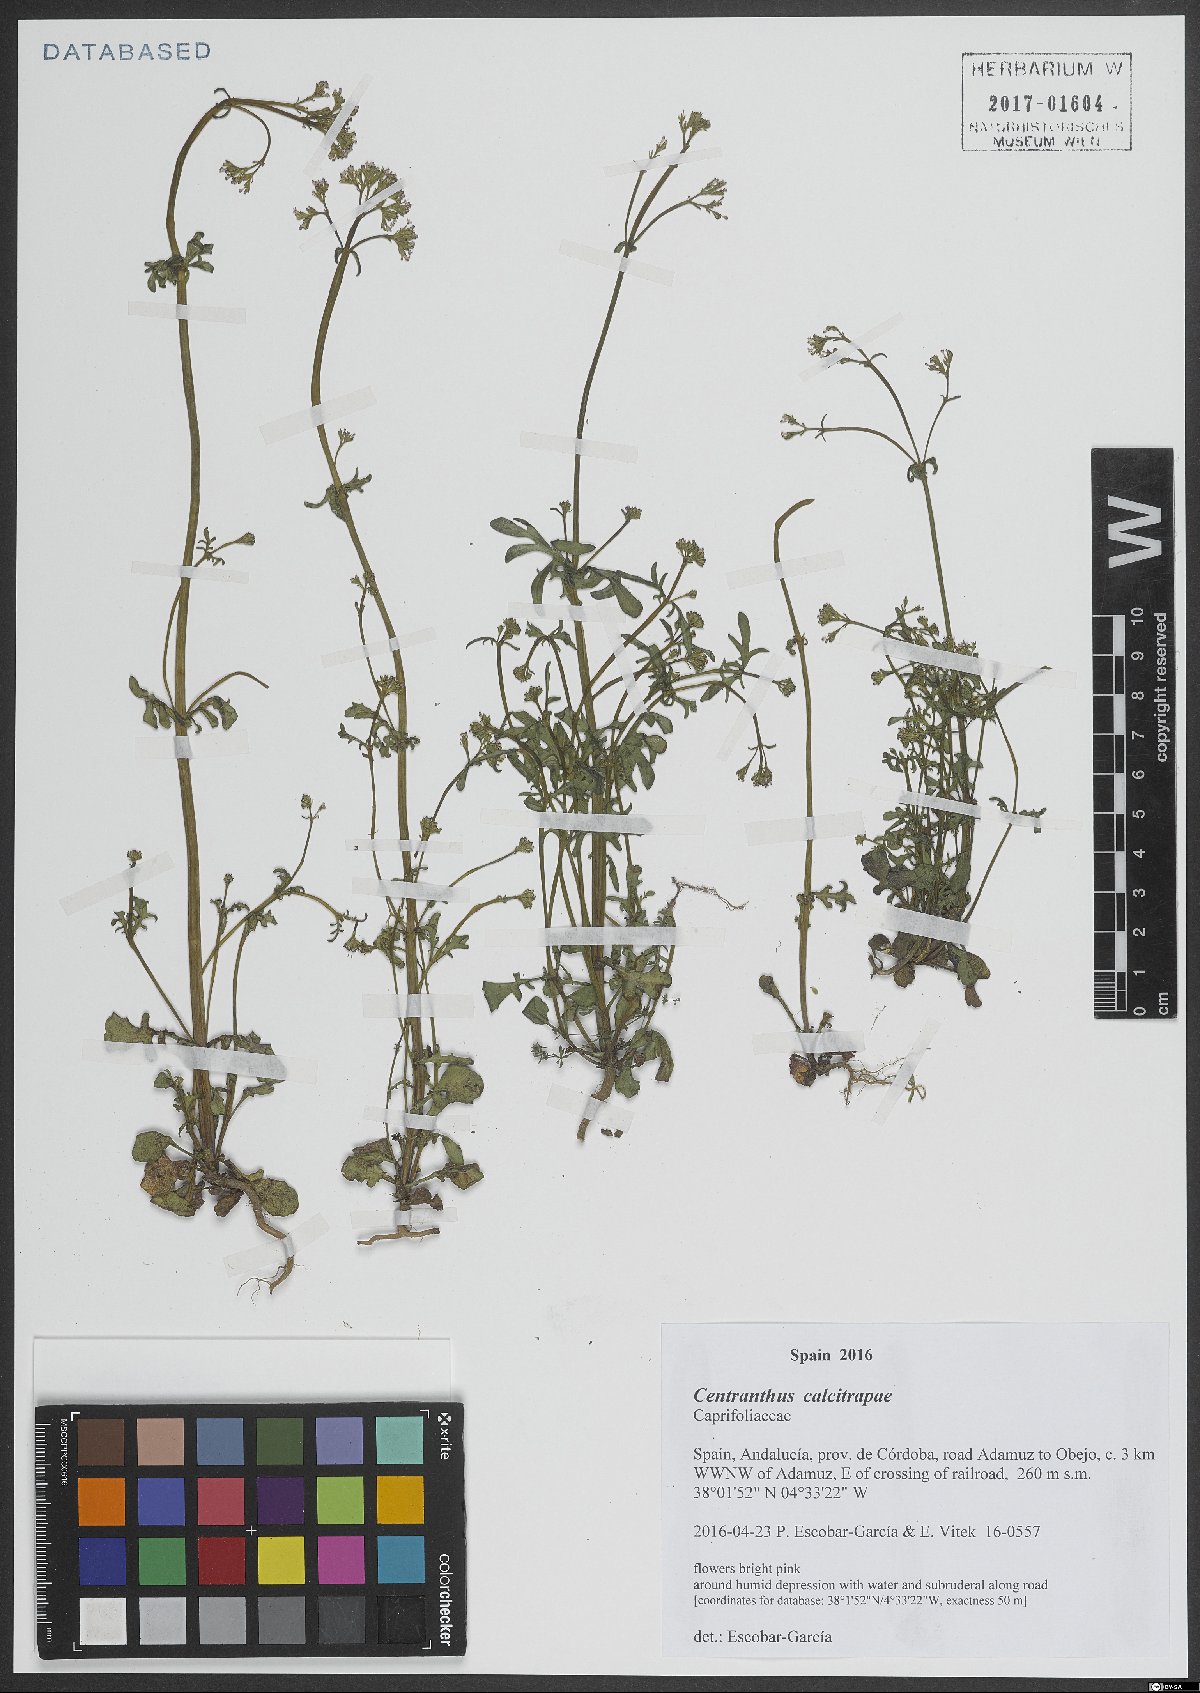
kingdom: Plantae
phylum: Tracheophyta
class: Magnoliopsida
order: Dipsacales
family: Caprifoliaceae
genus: Centranthus
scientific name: Centranthus calcitrapae
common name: Annual valerian
